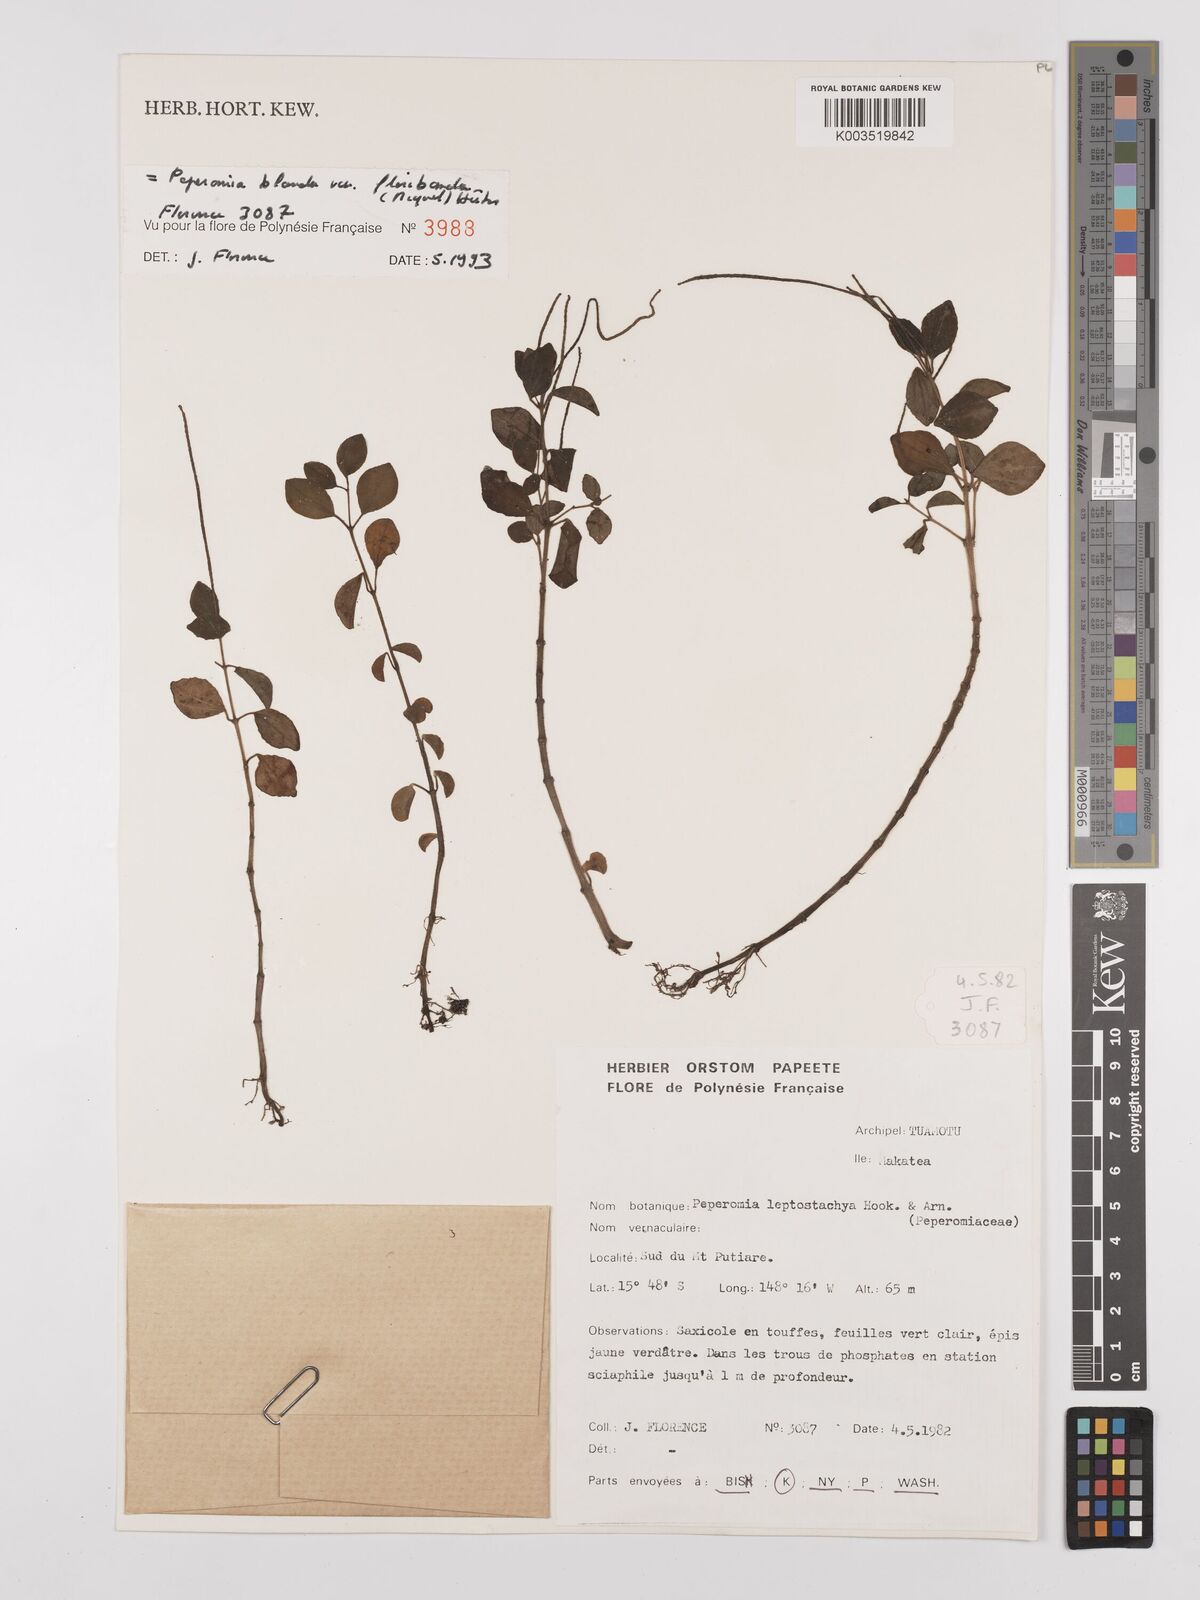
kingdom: Plantae
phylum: Tracheophyta
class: Magnoliopsida
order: Piperales
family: Piperaceae
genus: Peperomia
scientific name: Peperomia leptostachya
